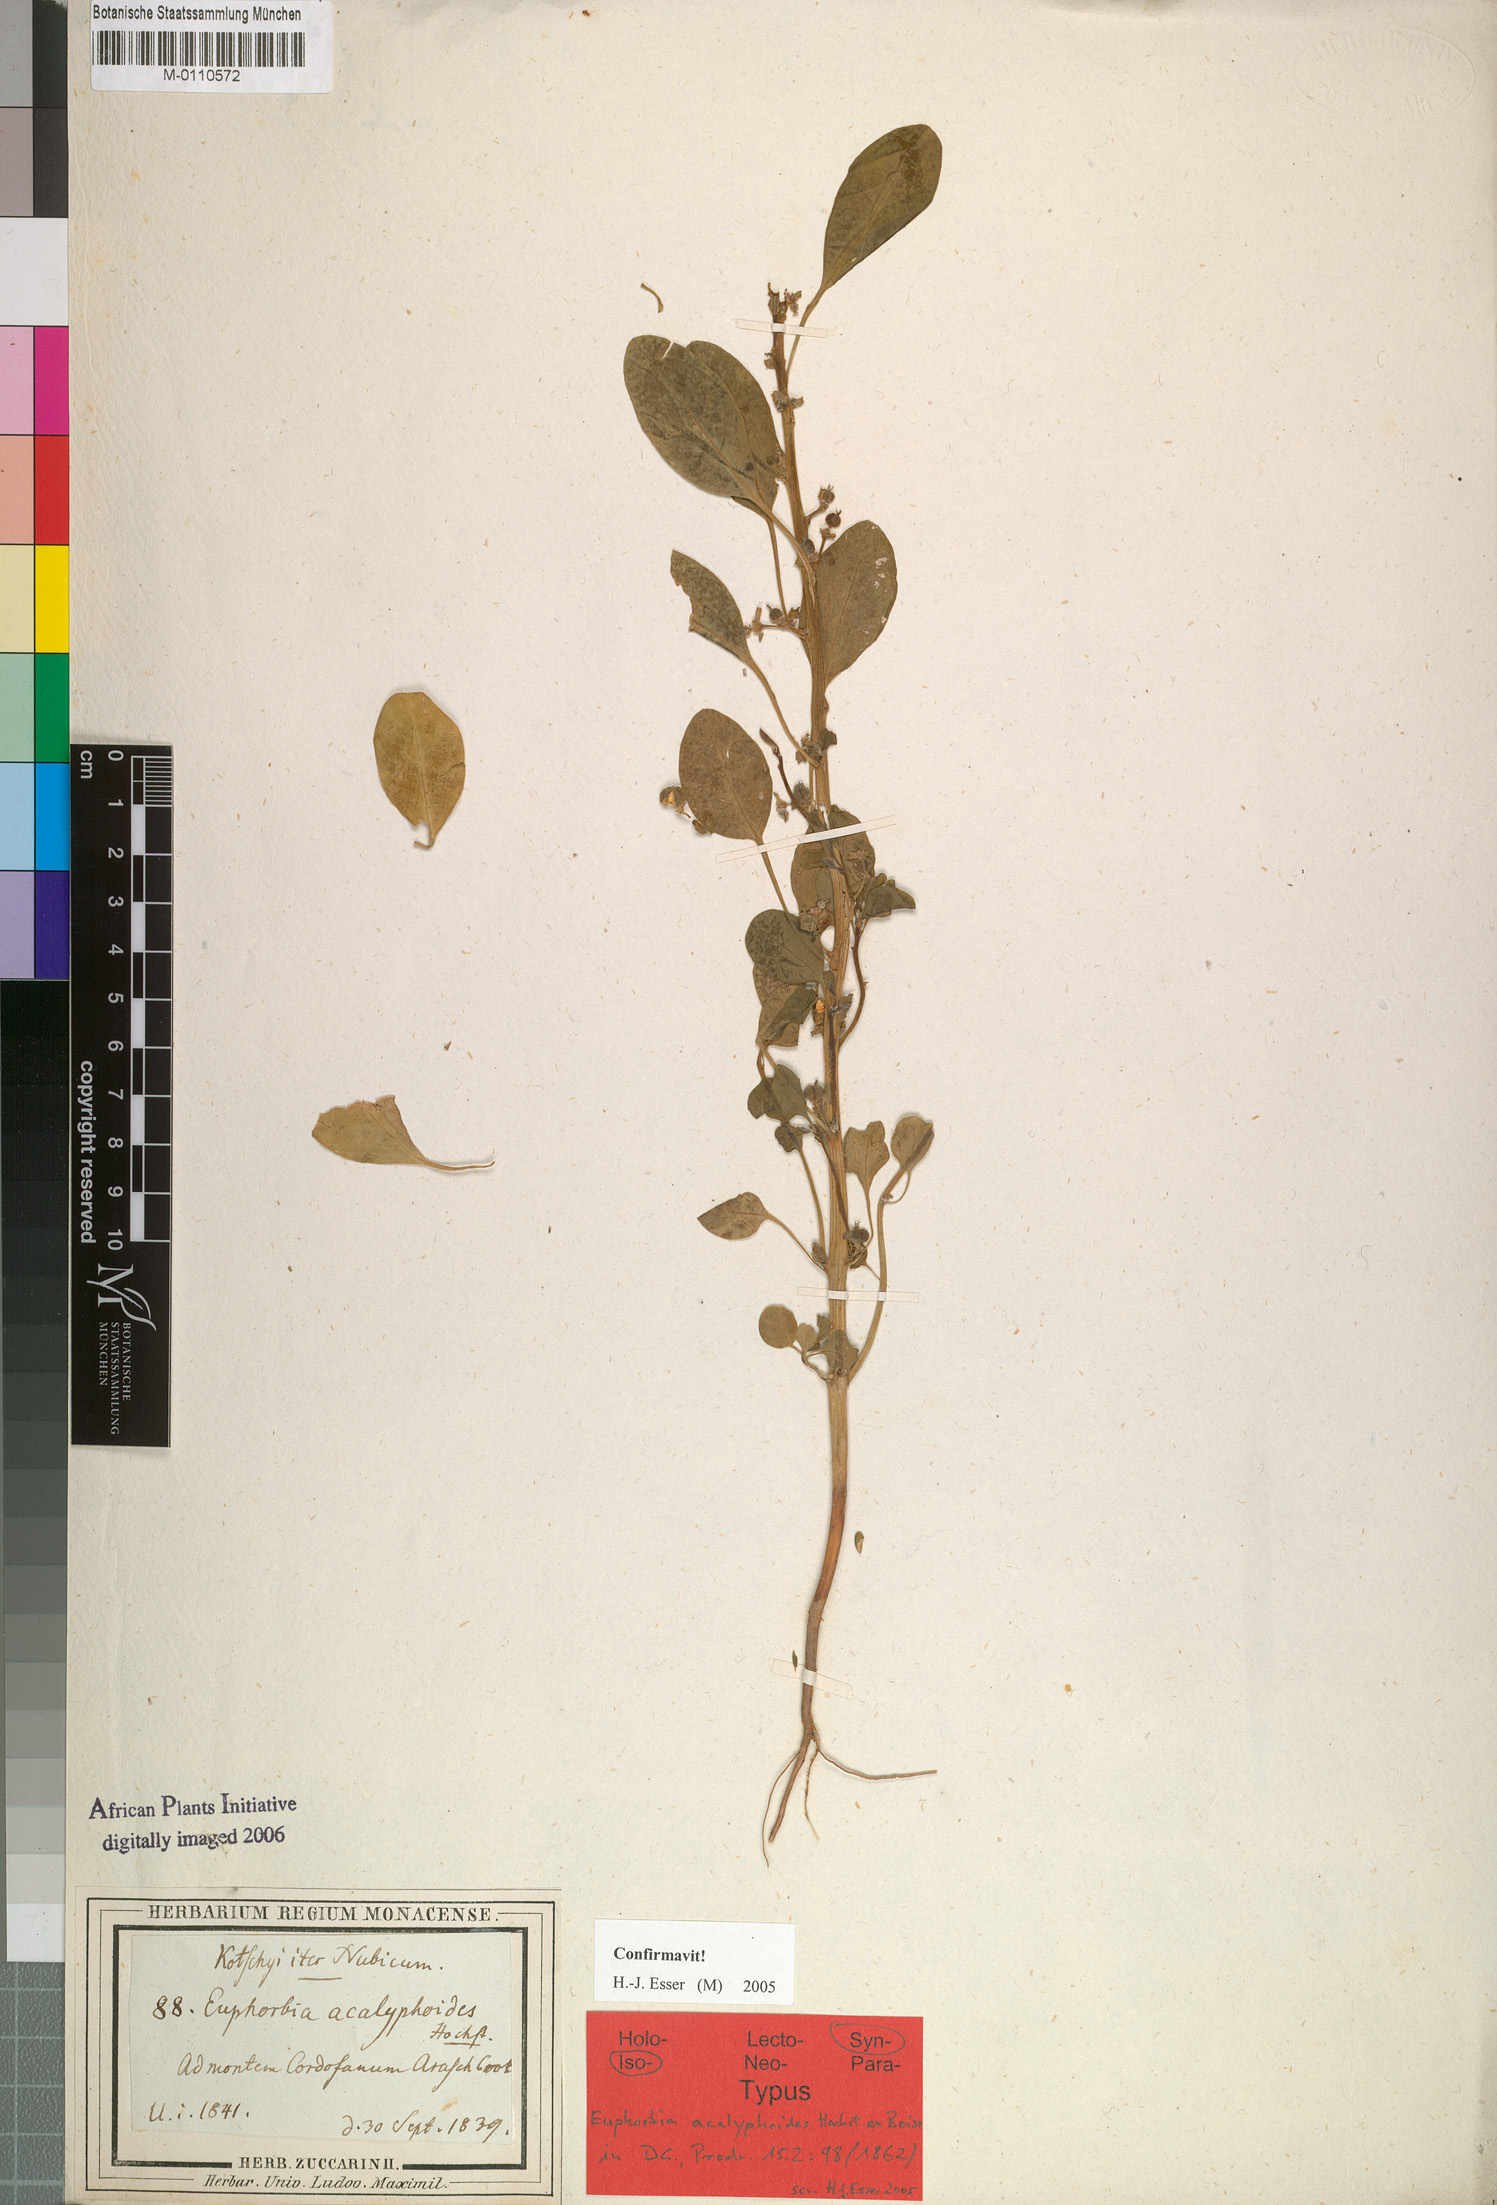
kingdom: Plantae
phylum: Tracheophyta
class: Magnoliopsida
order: Malpighiales
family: Euphorbiaceae
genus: Euphorbia
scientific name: Euphorbia acalyphoides
